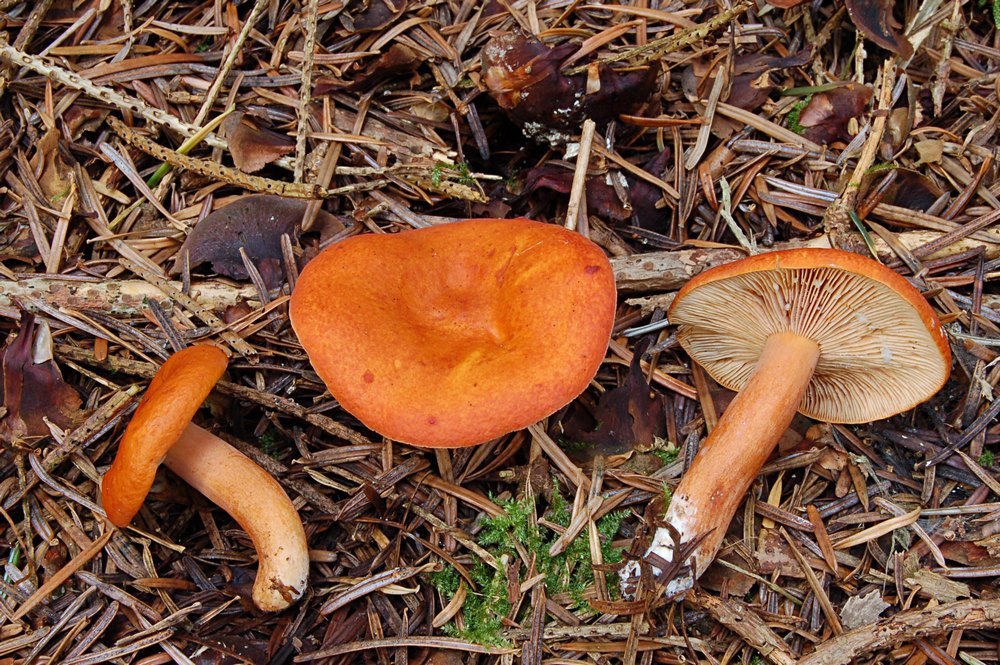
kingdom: Fungi
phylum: Basidiomycota
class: Agaricomycetes
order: Russulales
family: Russulaceae
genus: Lactarius
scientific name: Lactarius aurantiacus
